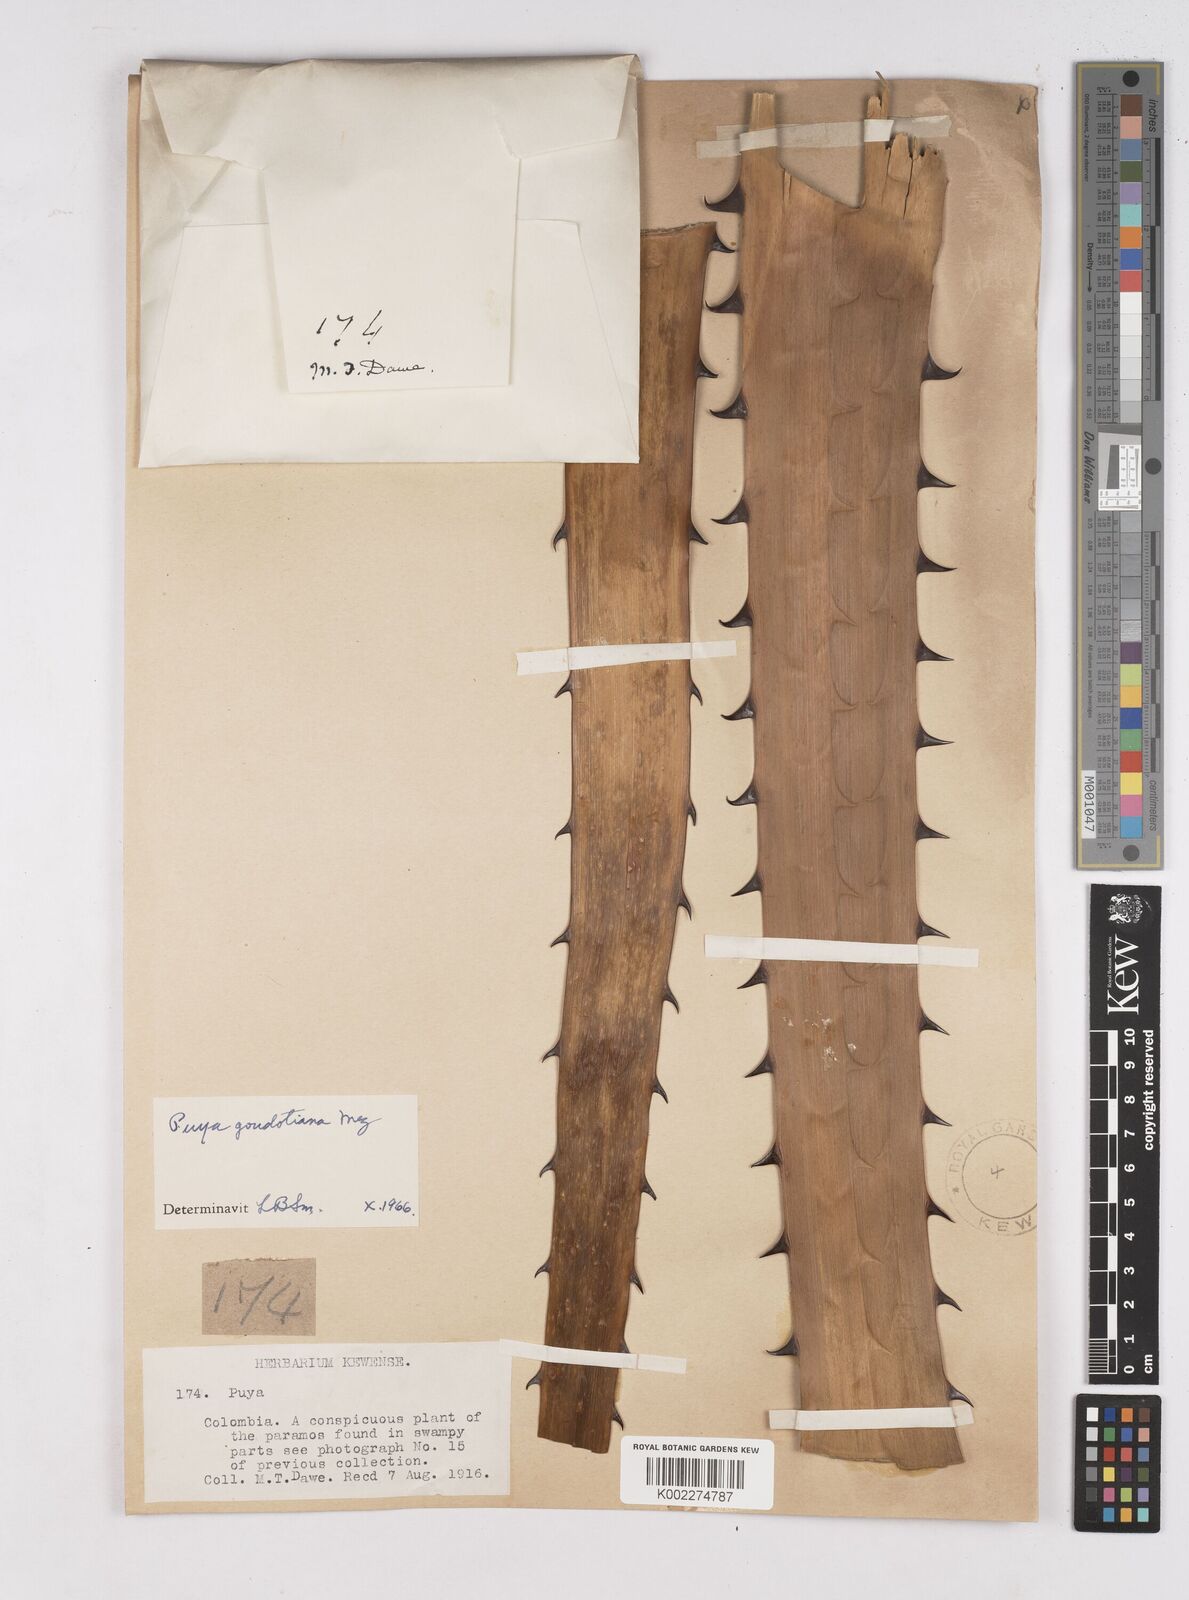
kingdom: Plantae
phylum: Tracheophyta
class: Liliopsida
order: Poales
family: Bromeliaceae
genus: Puya
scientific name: Puya goudotiana
